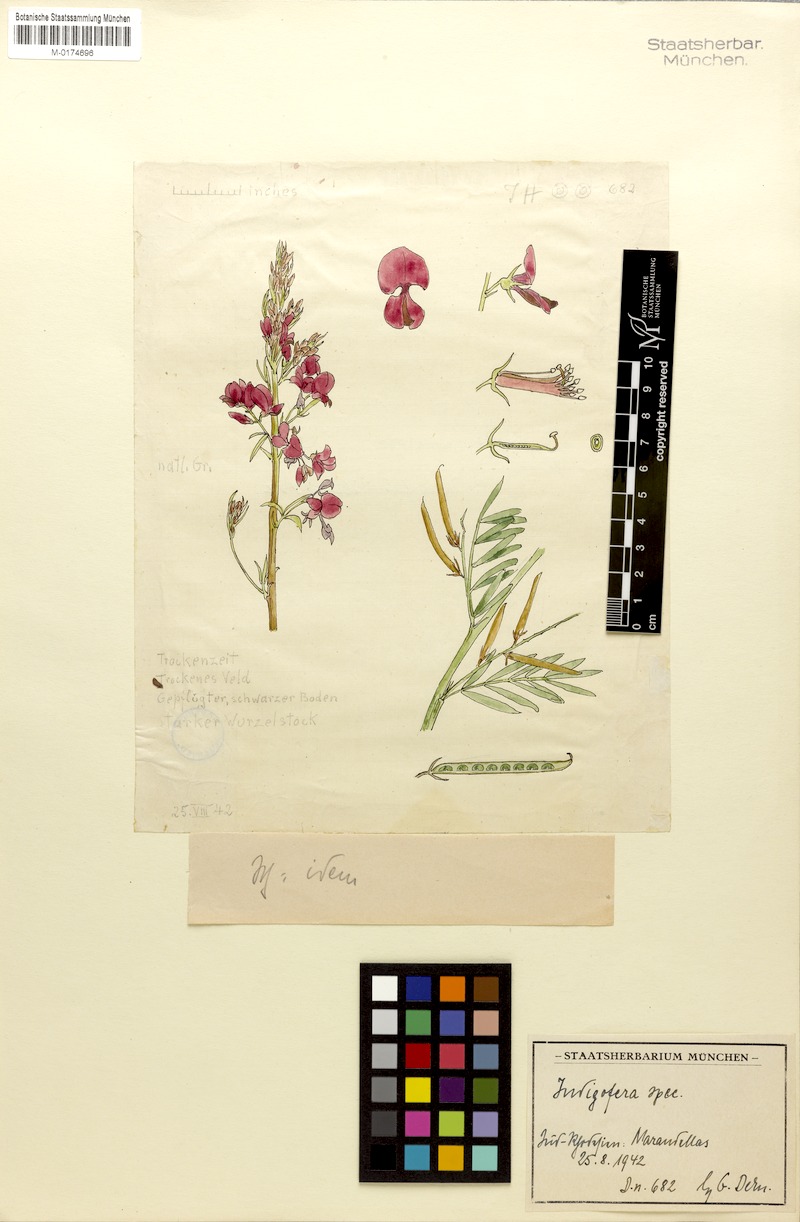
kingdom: Plantae
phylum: Tracheophyta
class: Magnoliopsida
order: Fabales
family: Fabaceae
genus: Indigofera
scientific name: Indigofera
